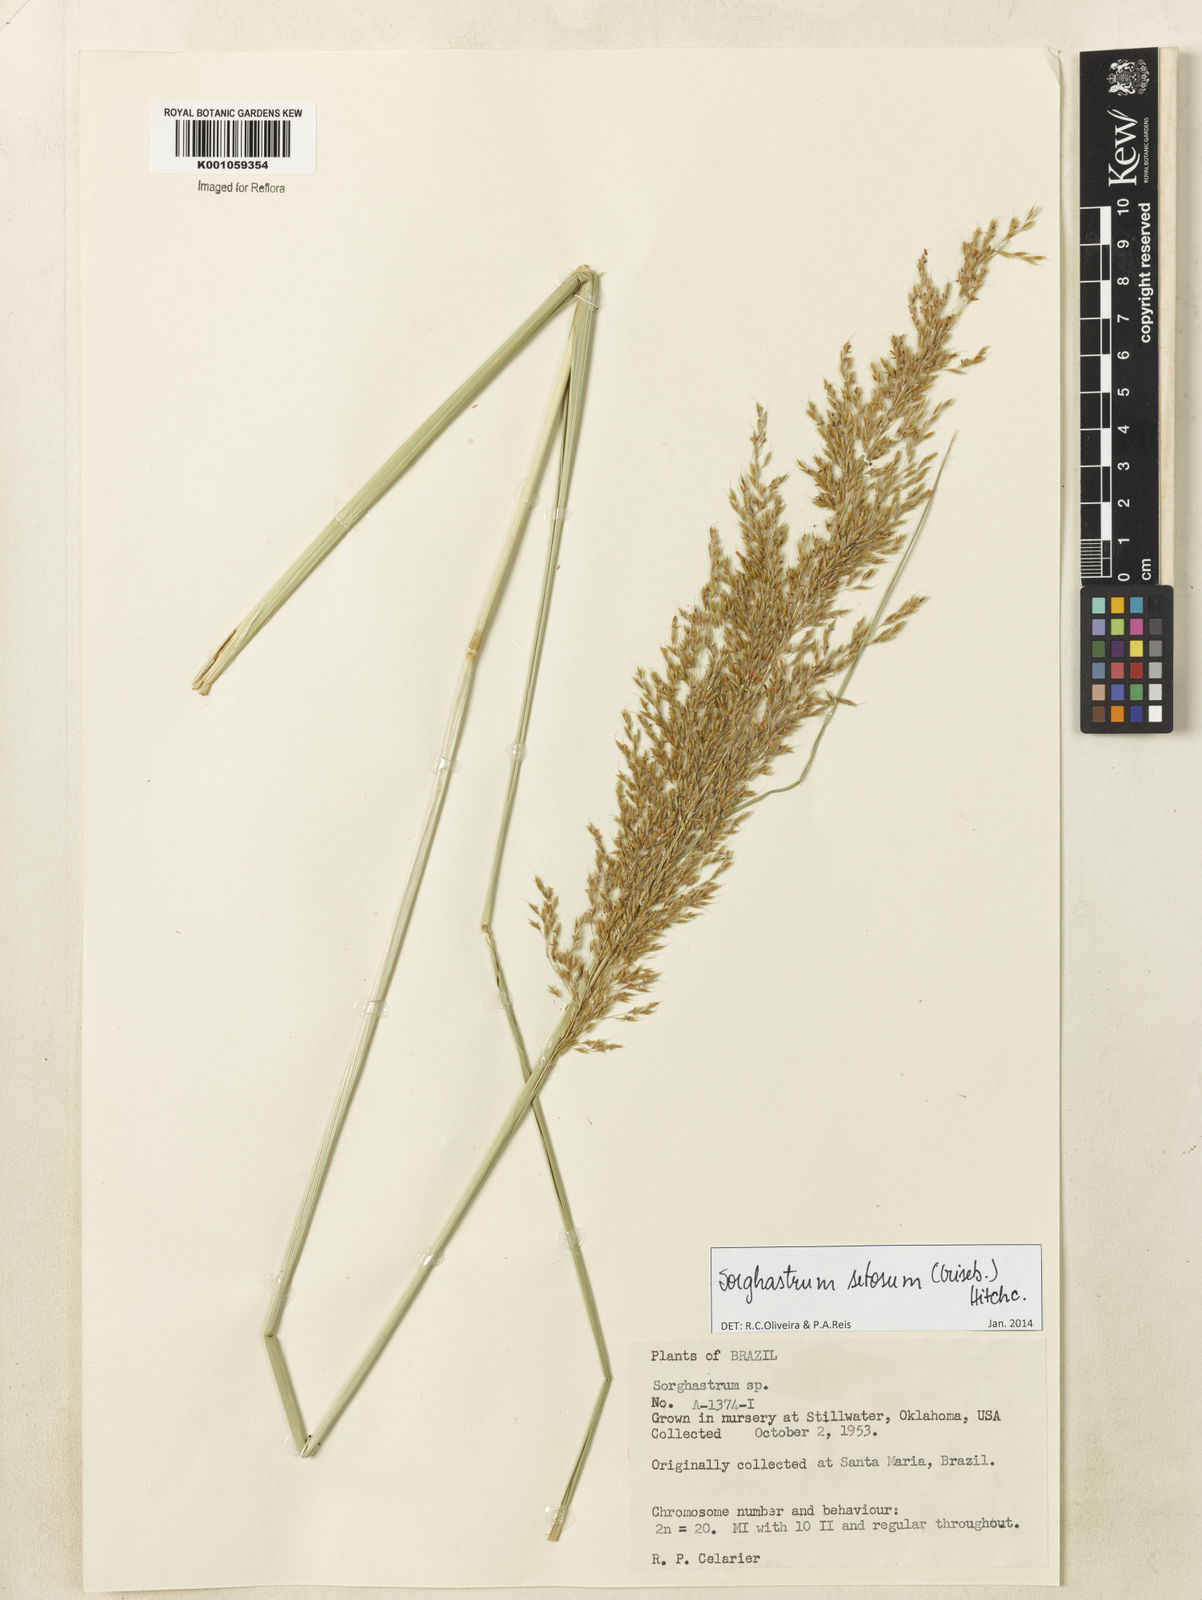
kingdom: Plantae
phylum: Tracheophyta
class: Liliopsida
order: Poales
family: Poaceae
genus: Sorghastrum
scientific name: Sorghastrum setosum
